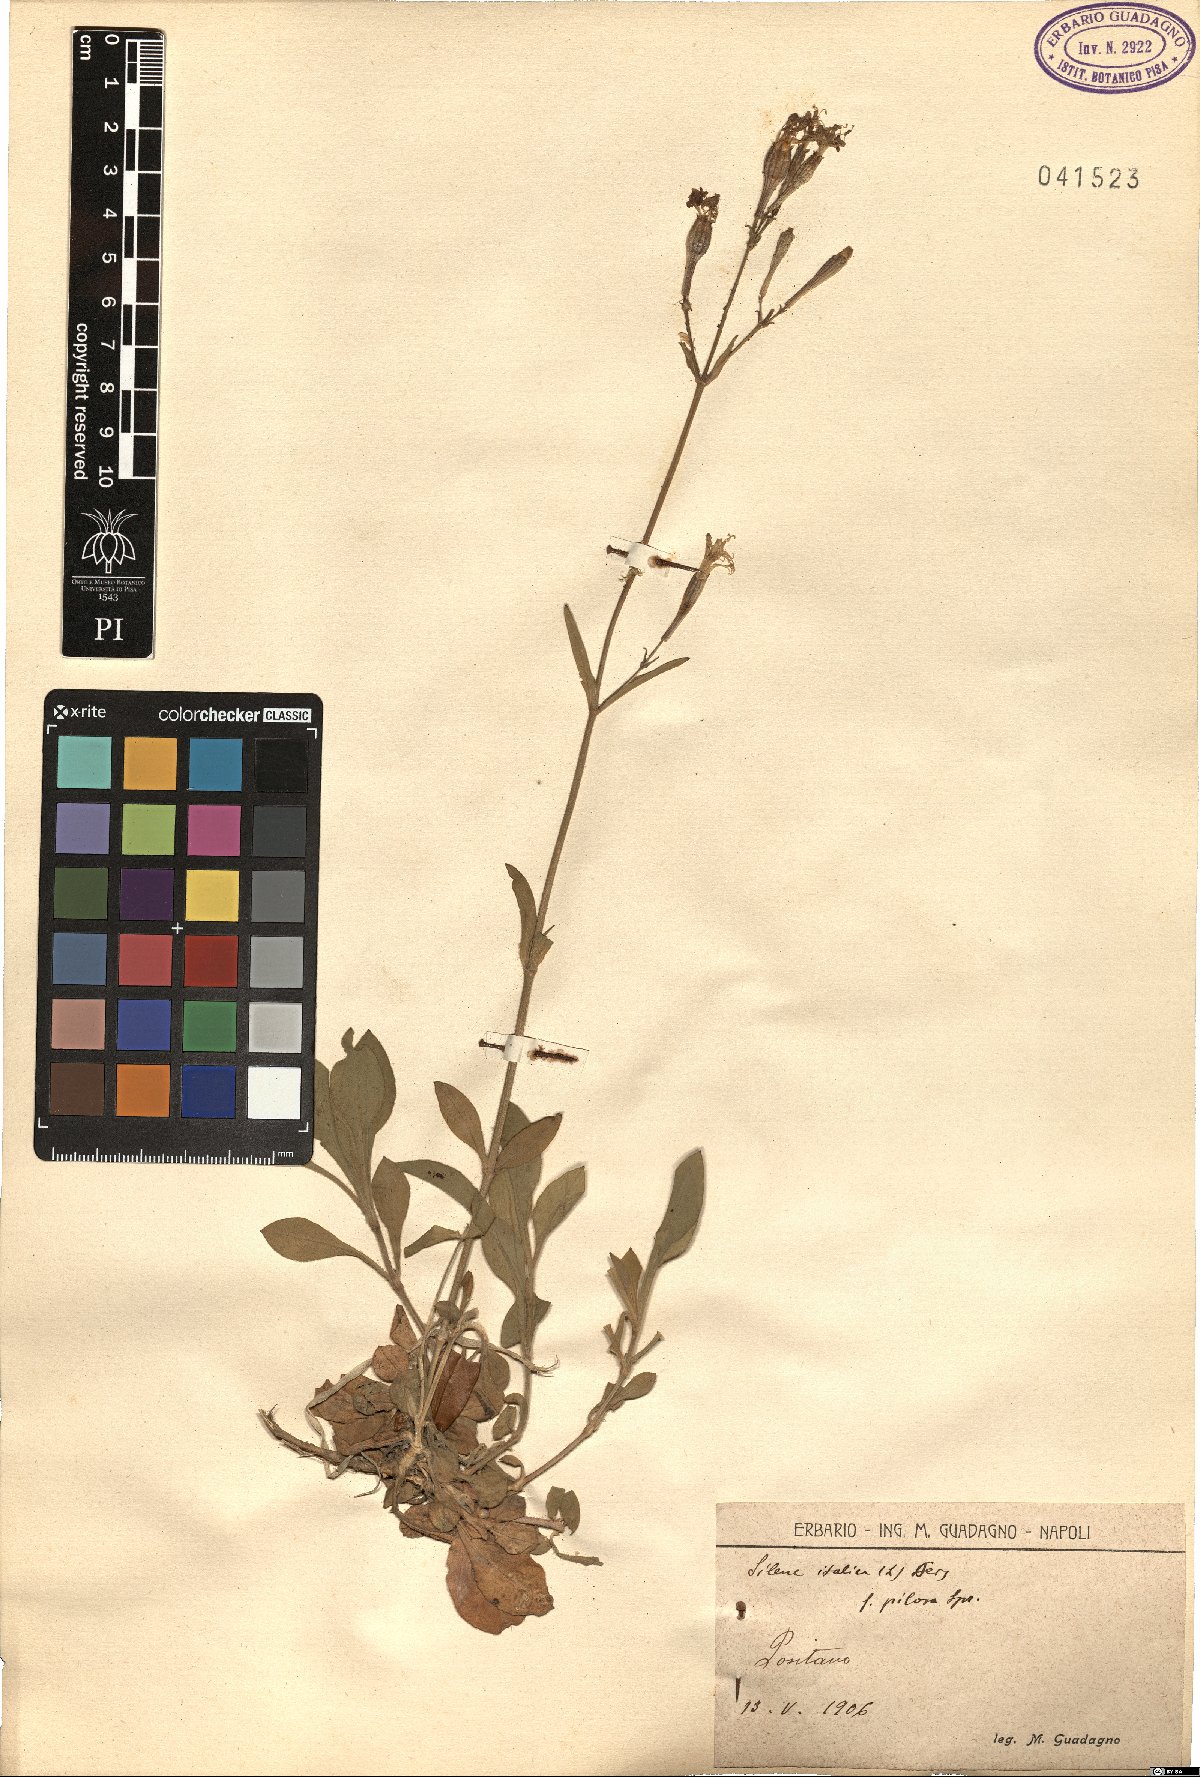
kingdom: Plantae
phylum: Tracheophyta
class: Magnoliopsida
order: Caryophyllales
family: Caryophyllaceae
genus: Silene
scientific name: Silene italica
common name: Italian catchfly
